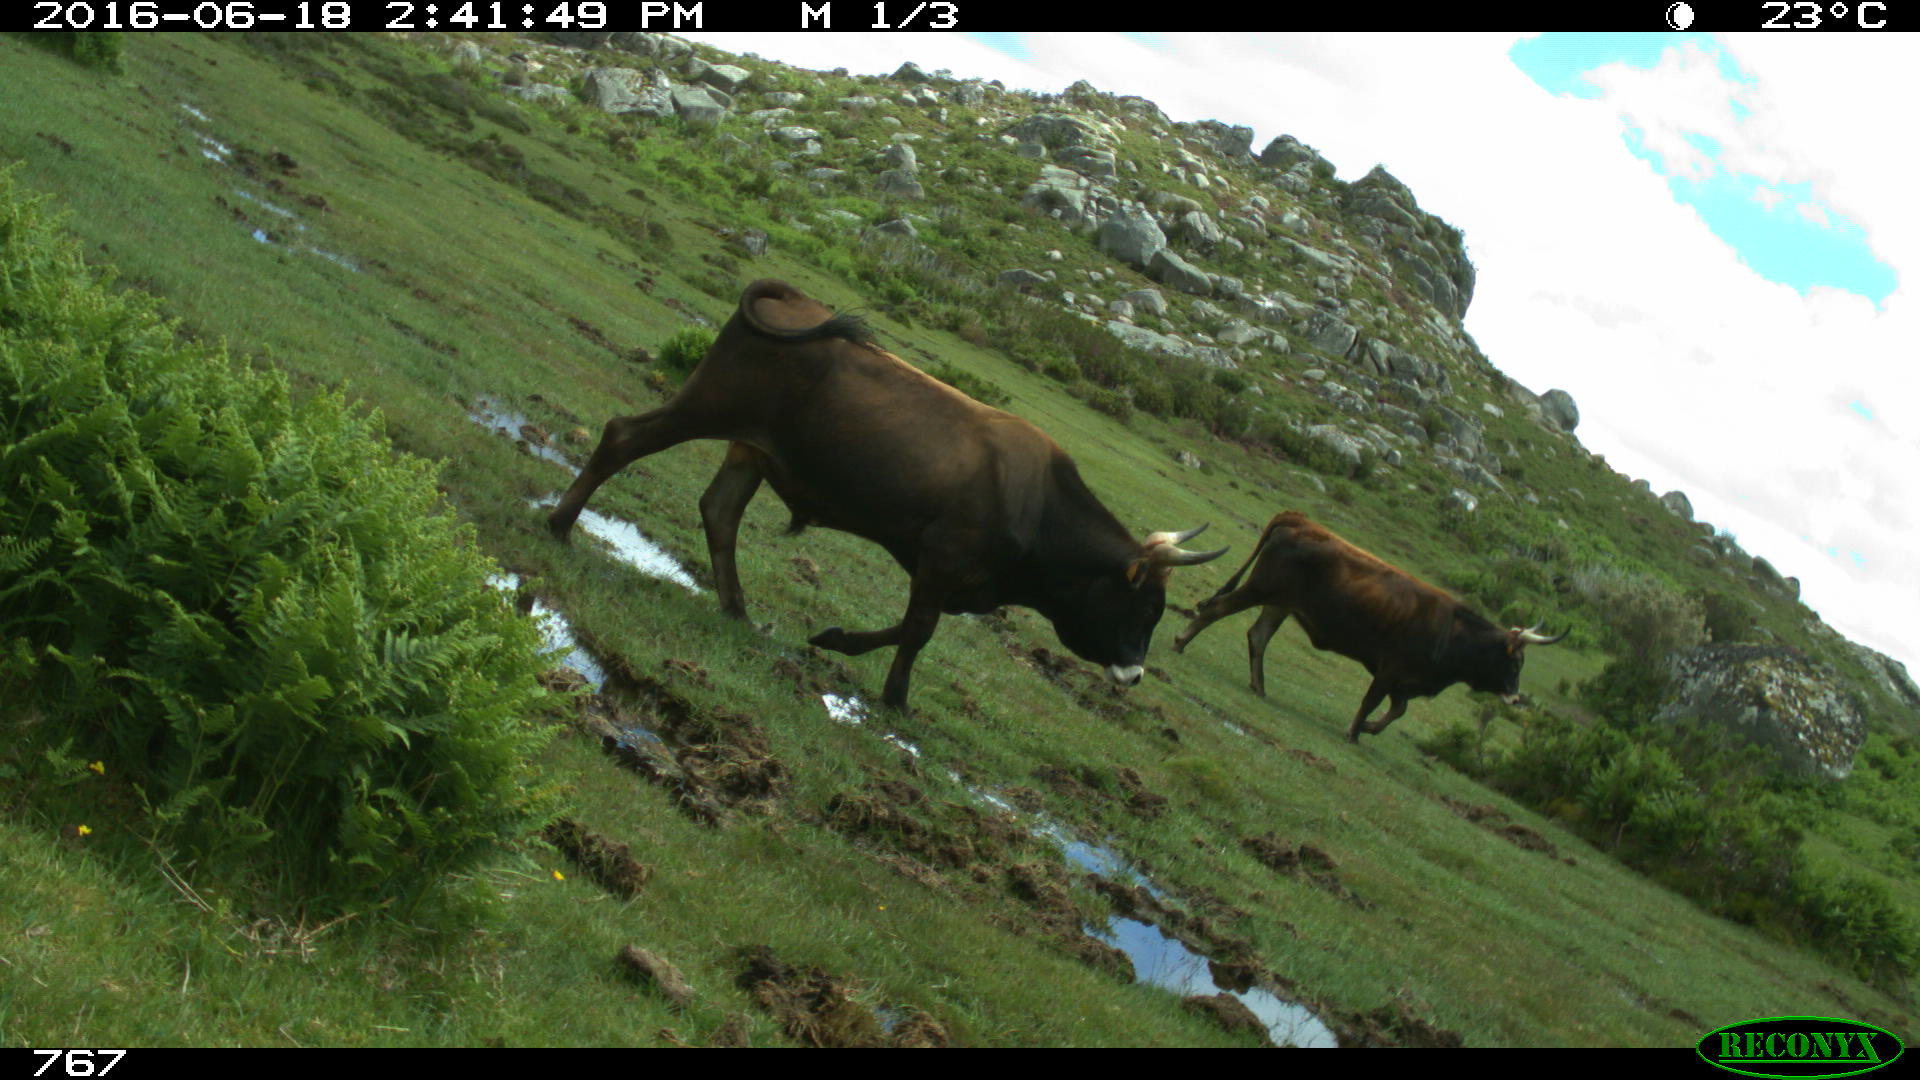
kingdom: Animalia
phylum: Chordata
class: Mammalia
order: Artiodactyla
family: Bovidae
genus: Bos
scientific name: Bos taurus
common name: Domesticated cattle
